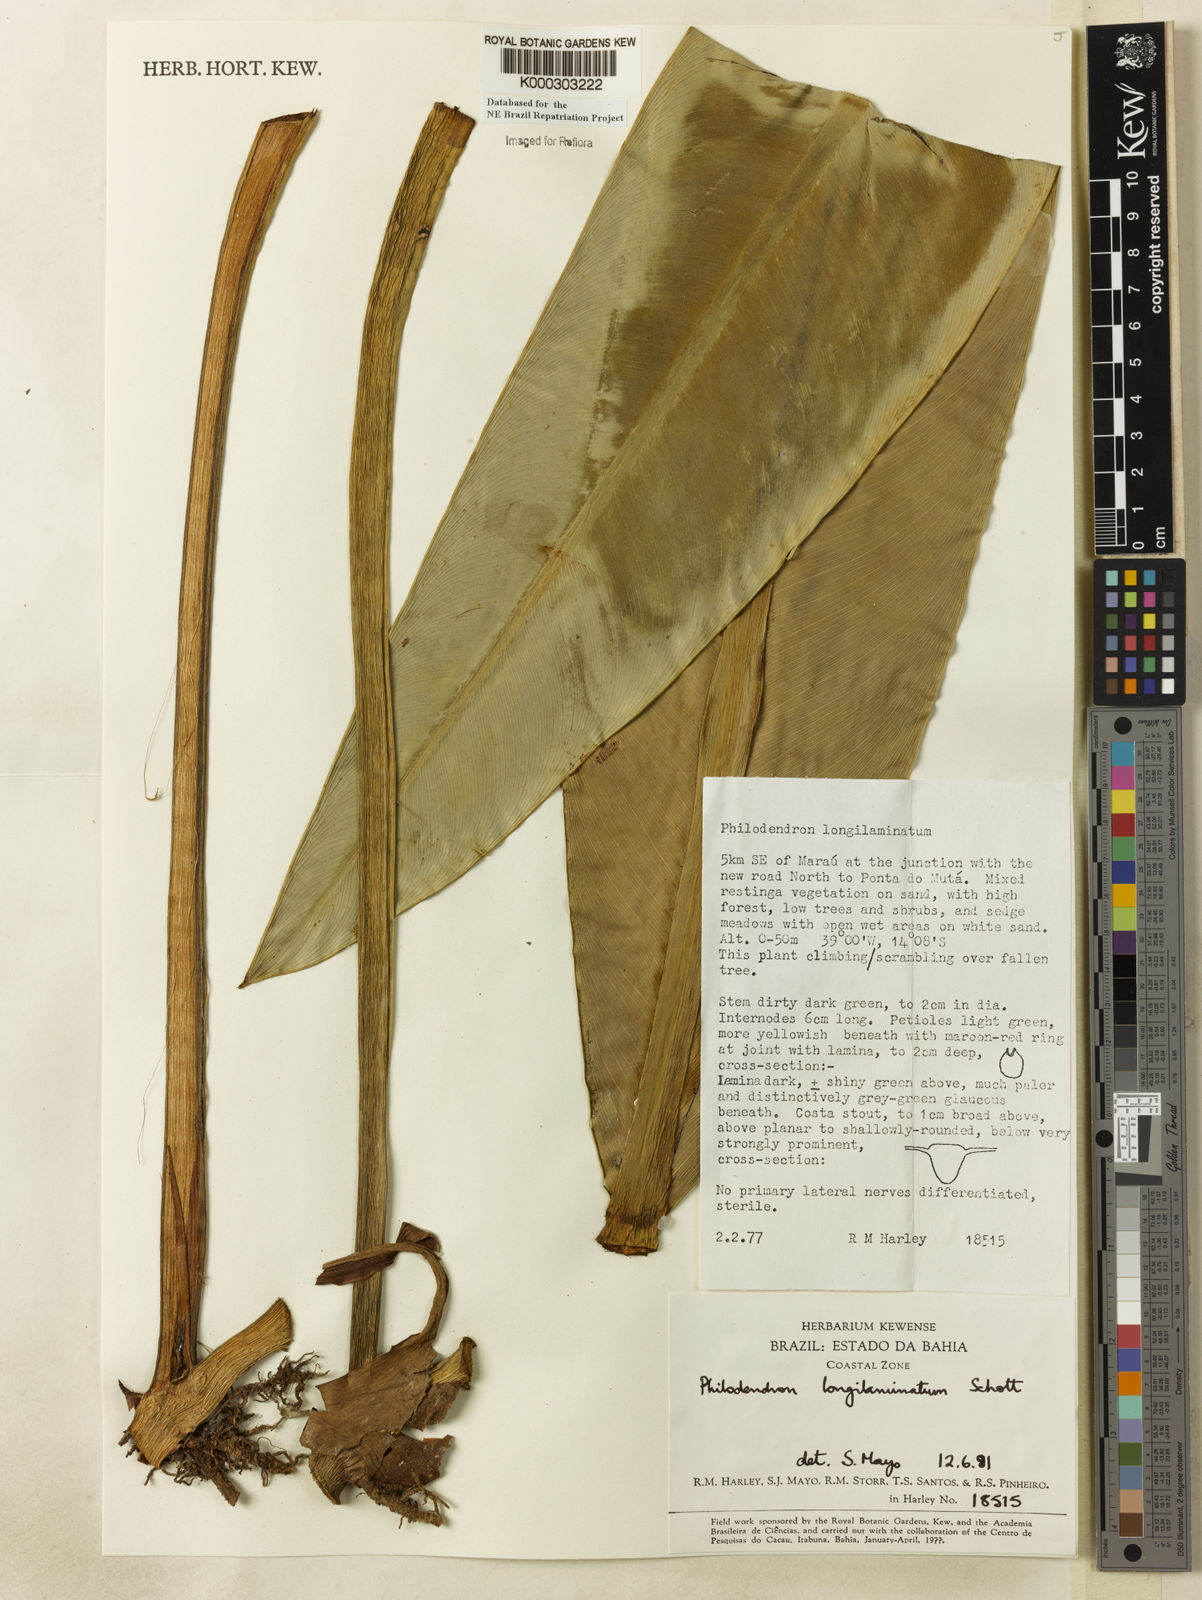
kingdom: Plantae
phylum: Tracheophyta
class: Liliopsida
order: Alismatales
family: Araceae
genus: Philodendron
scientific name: Philodendron longilaminatum
